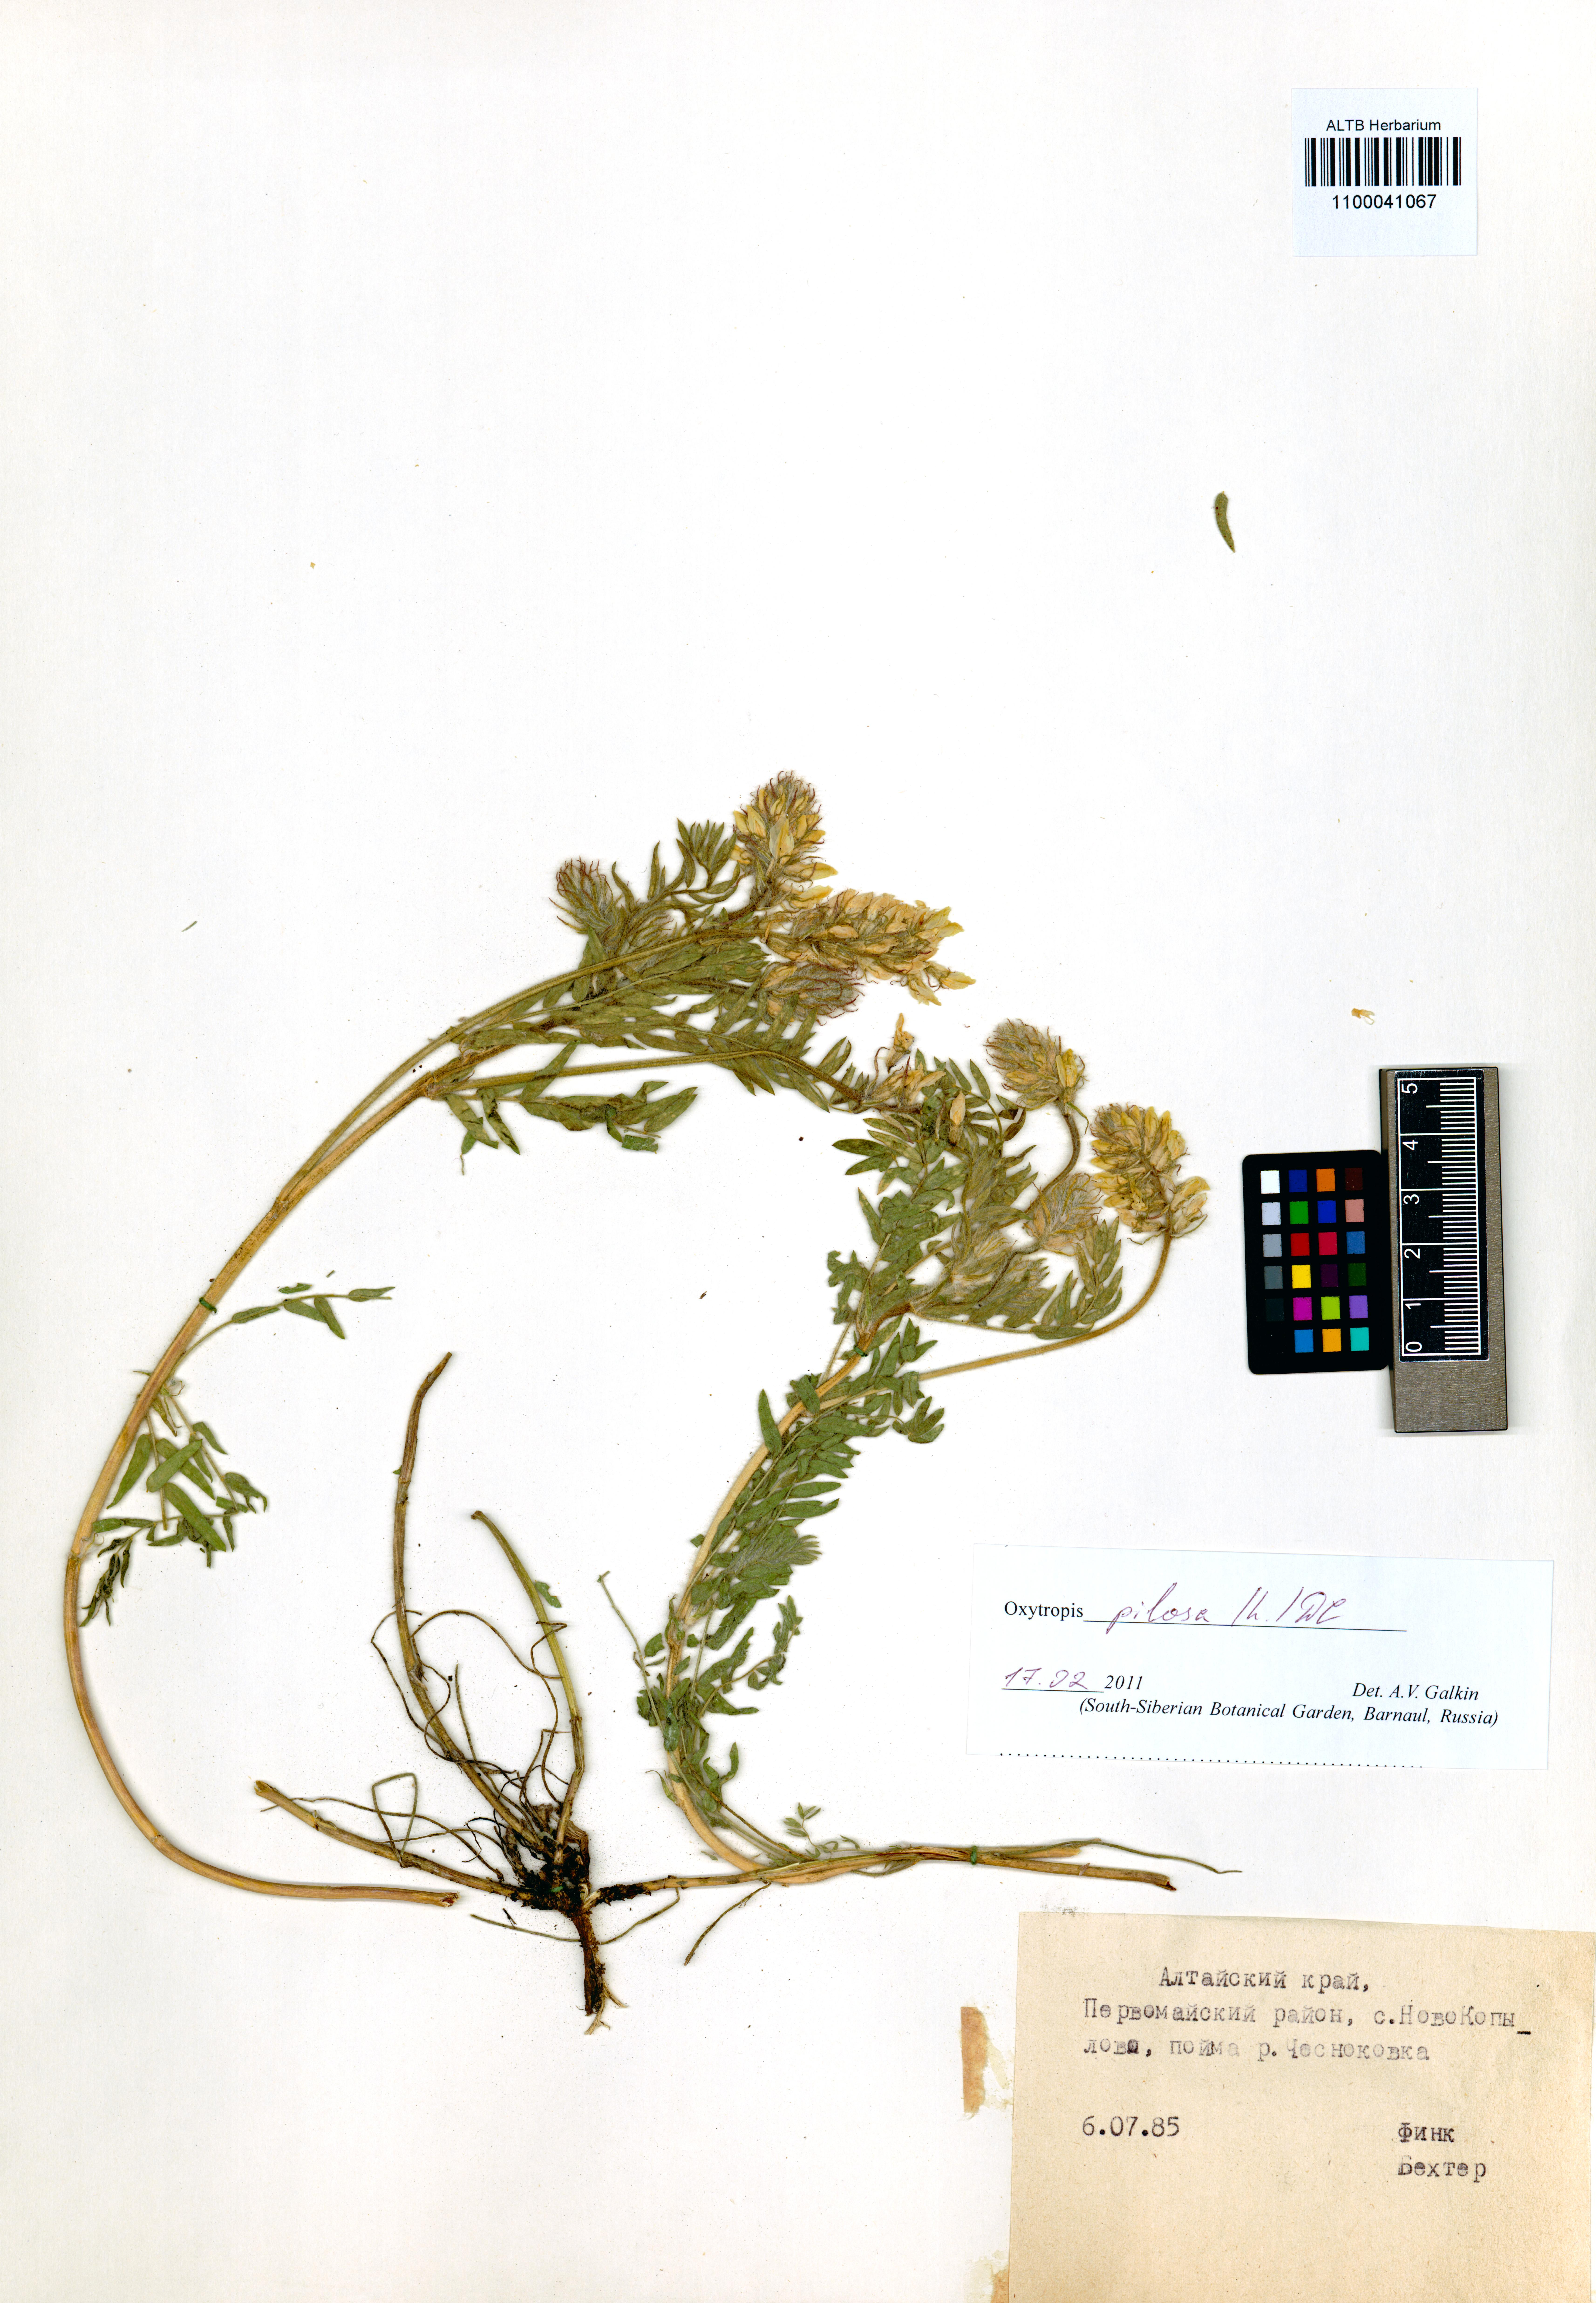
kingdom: Plantae
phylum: Tracheophyta
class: Magnoliopsida
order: Fabales
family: Fabaceae
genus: Oxytropis
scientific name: Oxytropis pilosa
